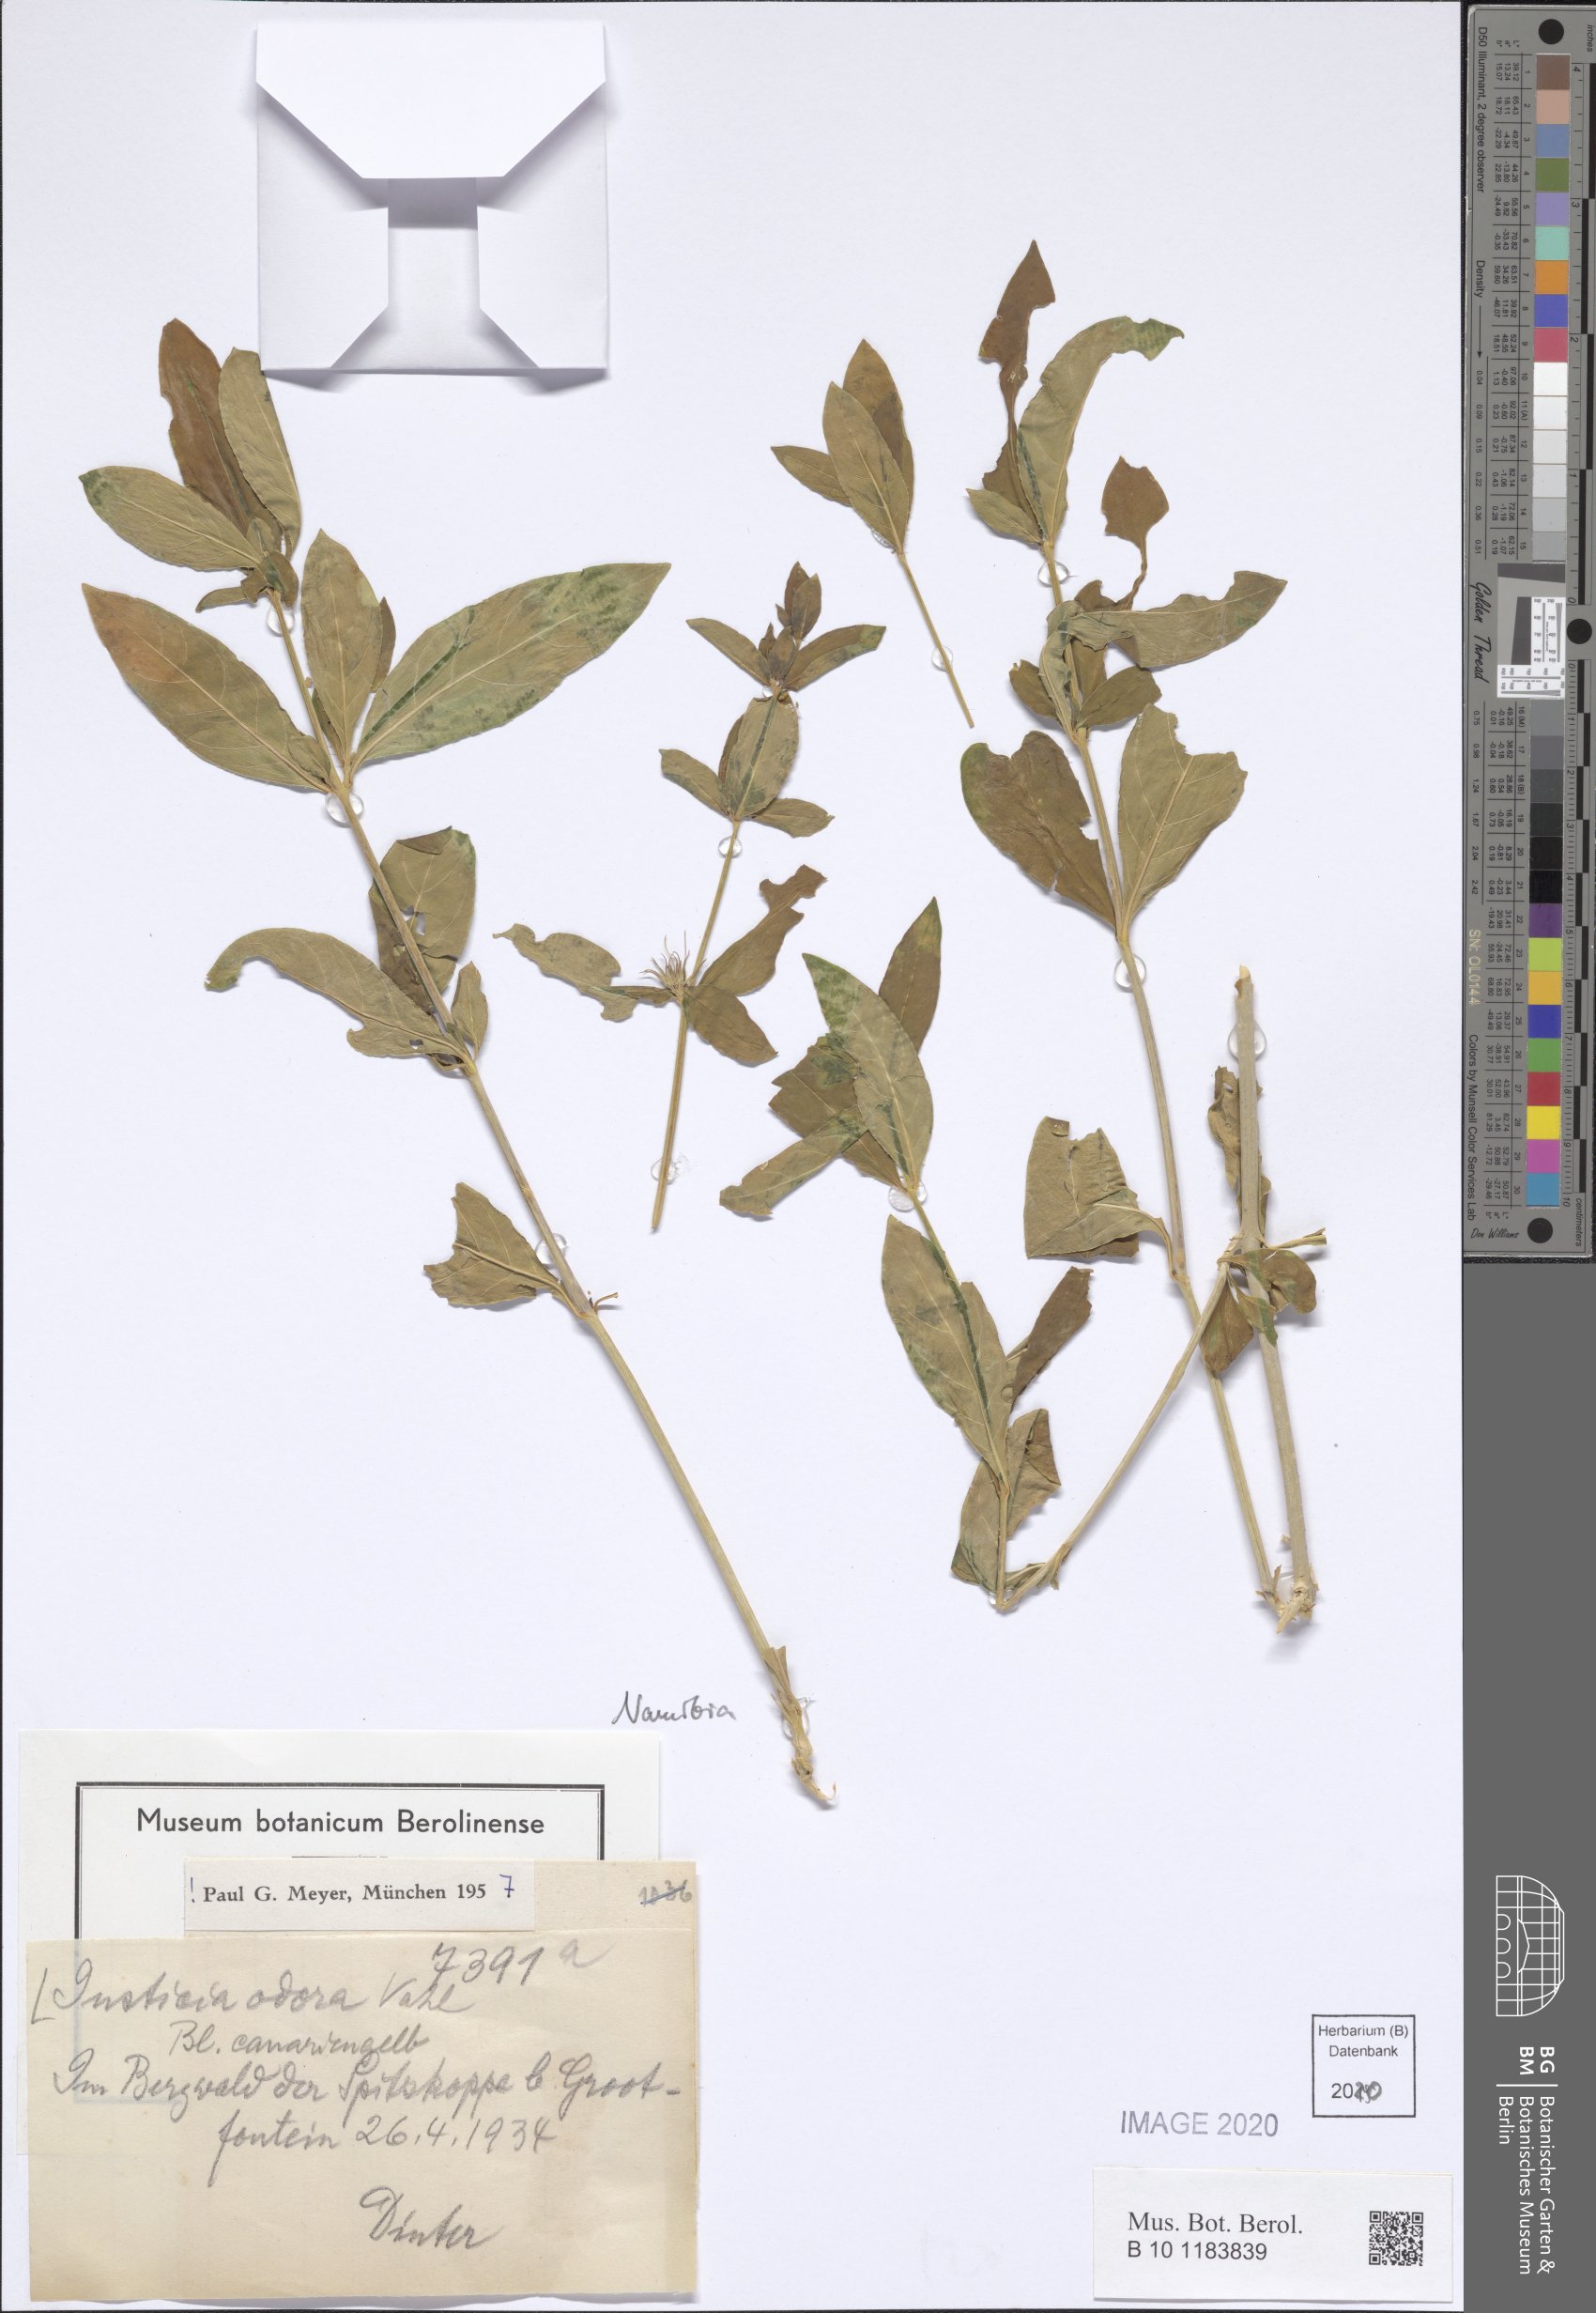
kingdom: Plantae
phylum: Tracheophyta
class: Magnoliopsida
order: Lamiales
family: Acanthaceae
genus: Justicia
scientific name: Justicia odora
